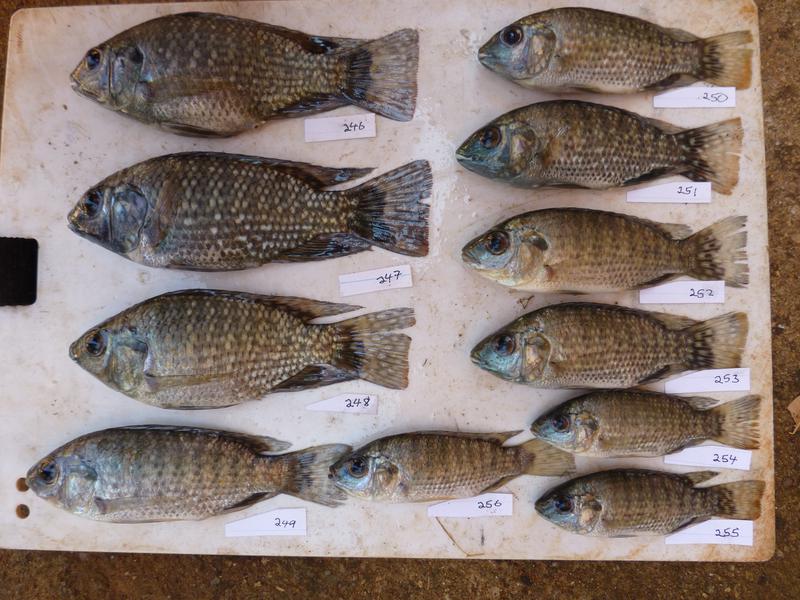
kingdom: Animalia
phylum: Chordata
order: Perciformes
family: Cichlidae
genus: Oreochromis
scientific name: Oreochromis leucostictus
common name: Blue spotted tilapia
